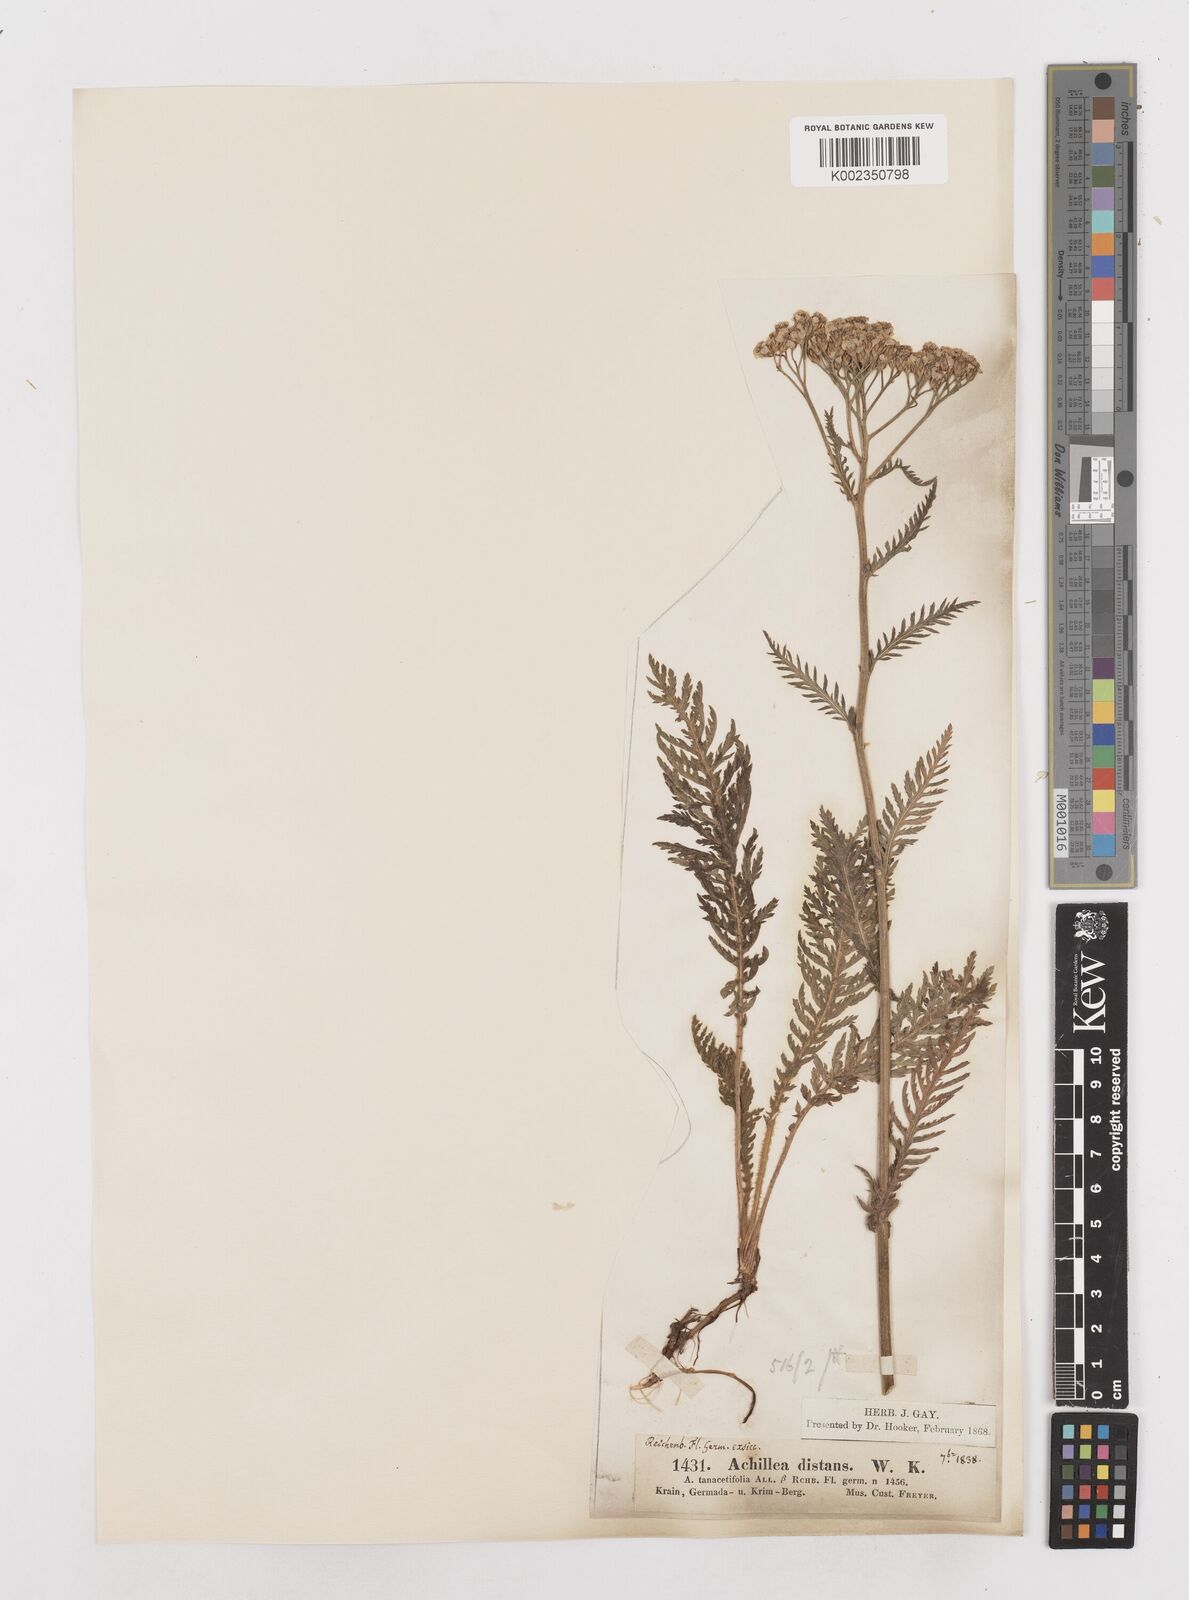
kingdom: Plantae
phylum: Tracheophyta
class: Magnoliopsida
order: Asterales
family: Asteraceae
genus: Achillea
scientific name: Achillea distans
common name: Tall yarrow
